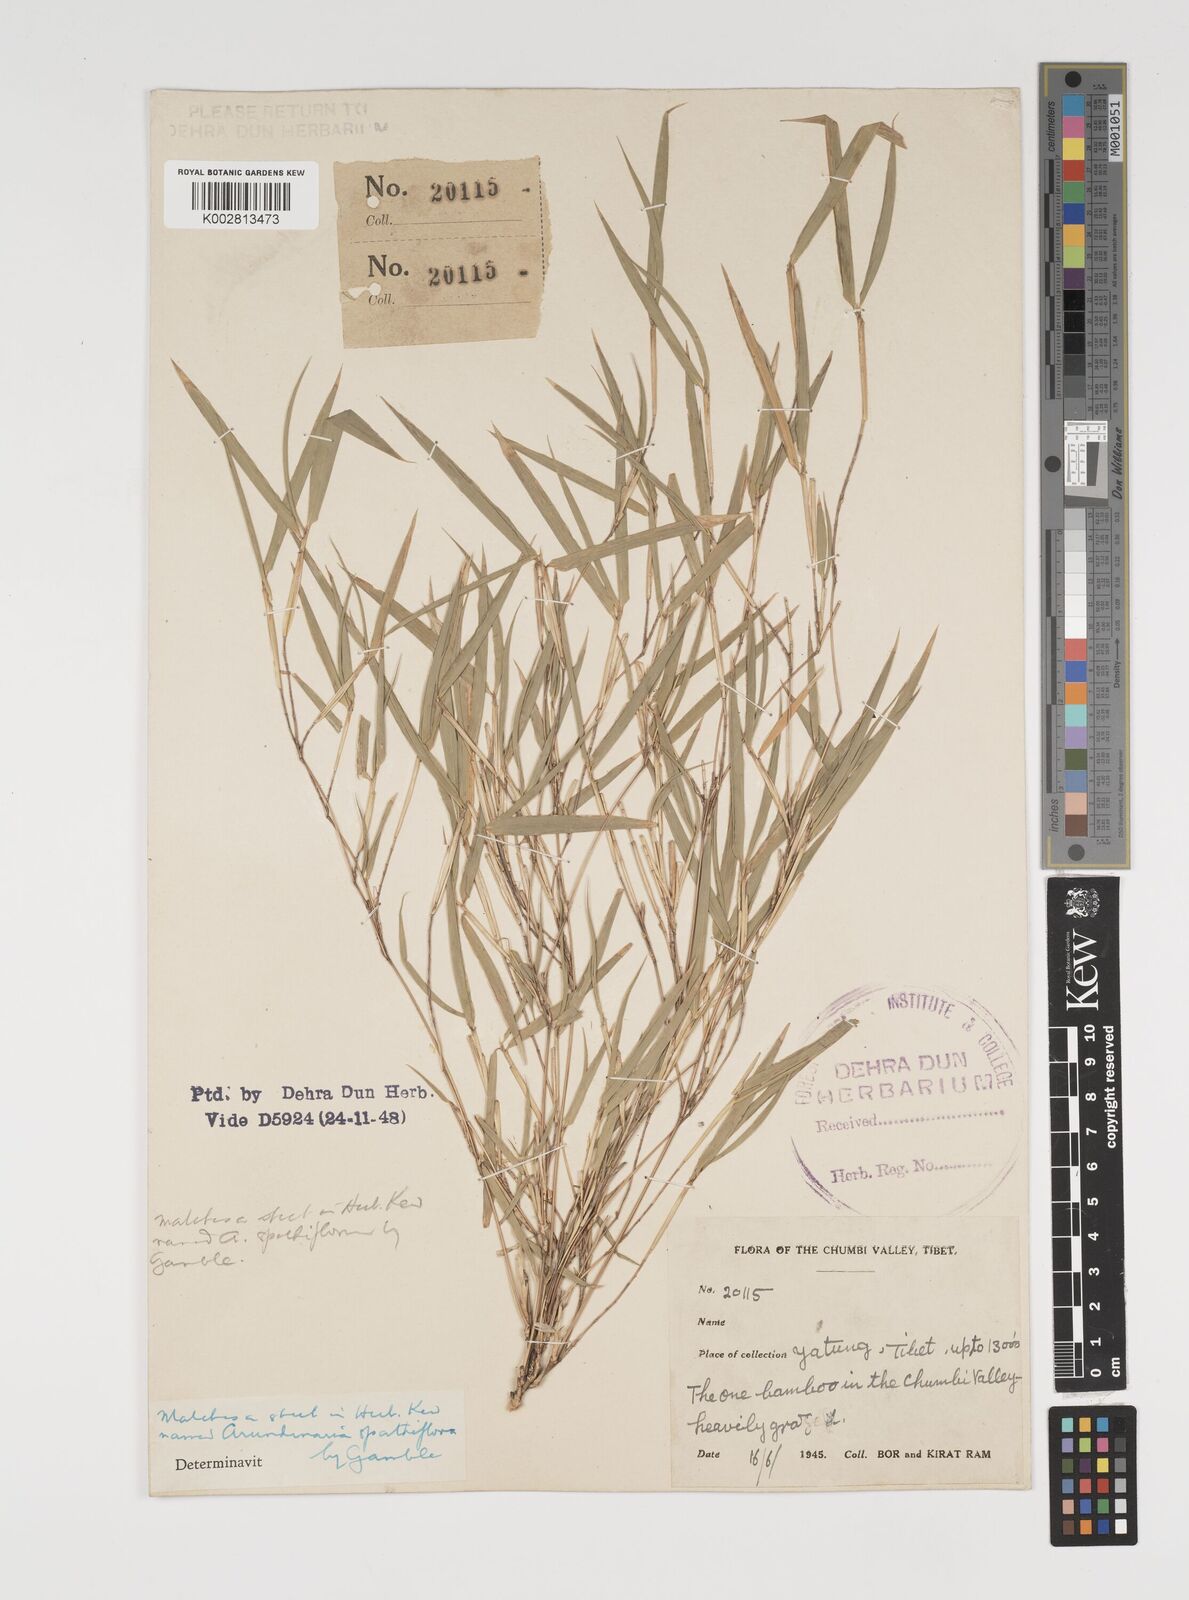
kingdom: Plantae
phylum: Tracheophyta
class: Liliopsida
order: Poales
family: Poaceae
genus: Thamnocalamus
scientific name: Thamnocalamus spathiflorus
